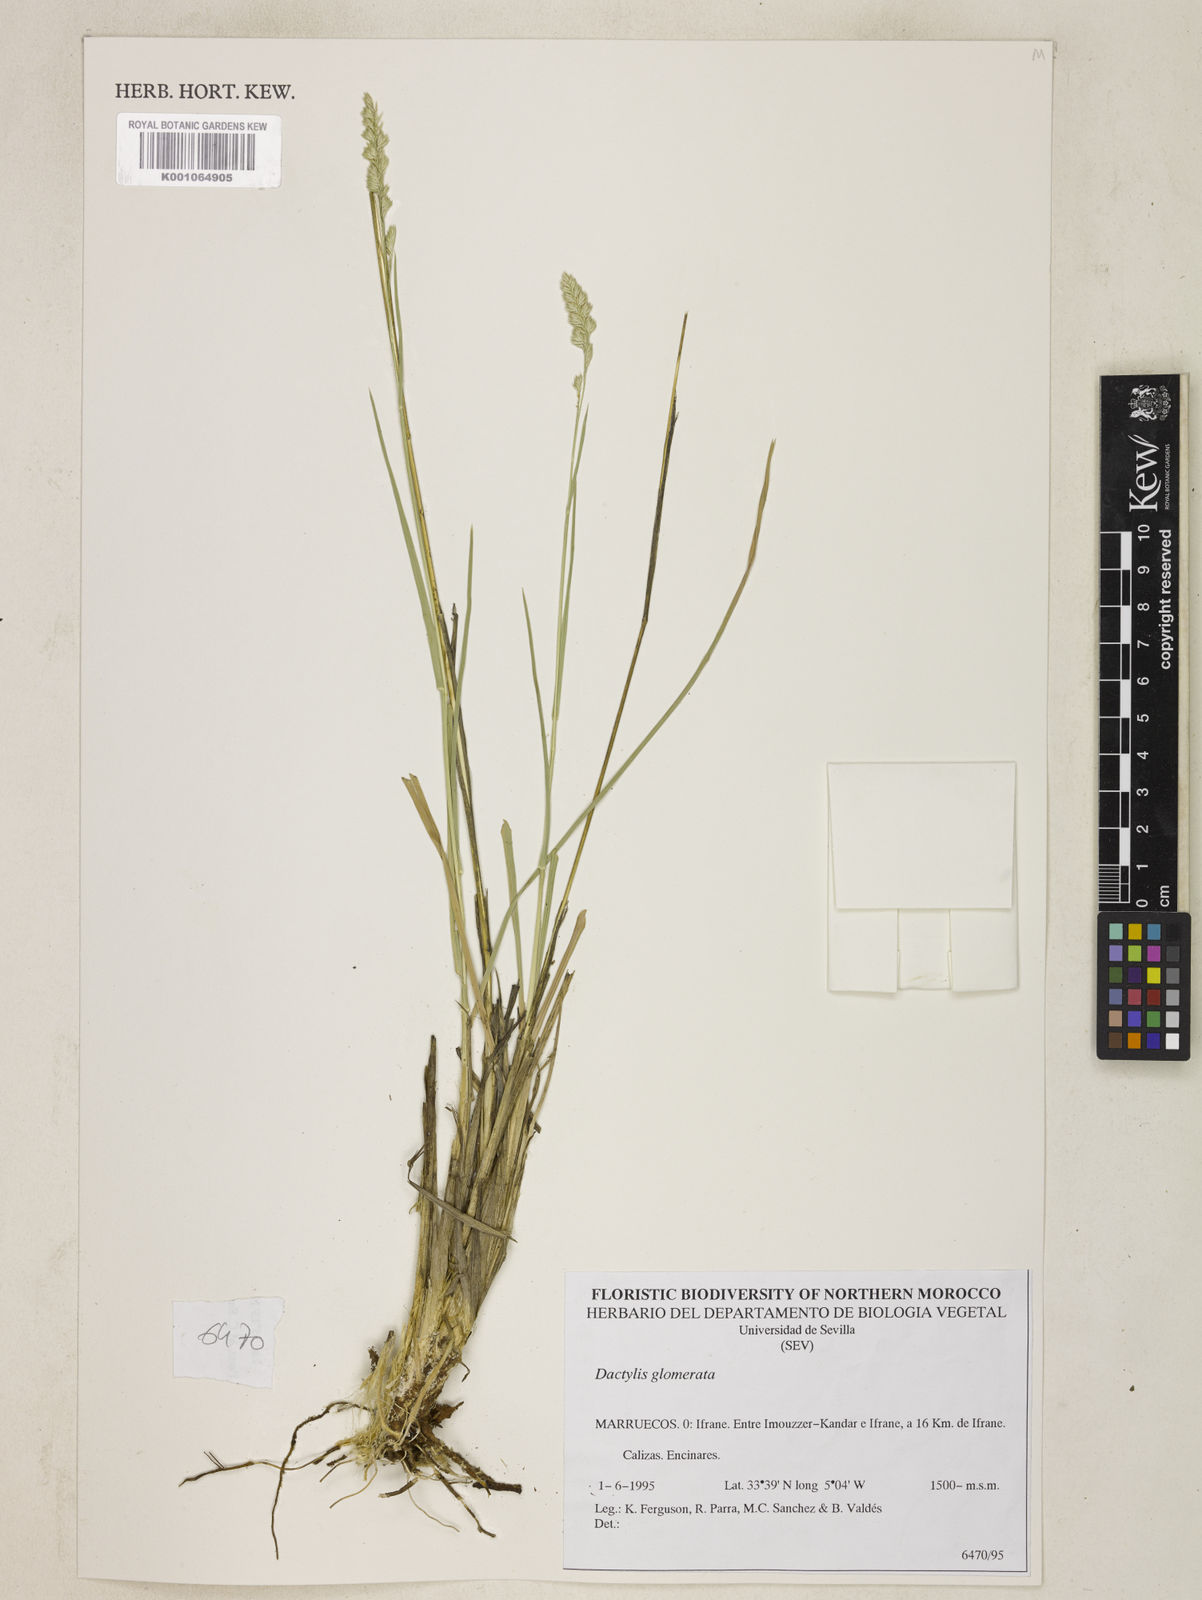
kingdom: Plantae
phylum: Tracheophyta
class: Liliopsida
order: Poales
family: Poaceae
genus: Dactylis
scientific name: Dactylis glomerata
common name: Orchardgrass
